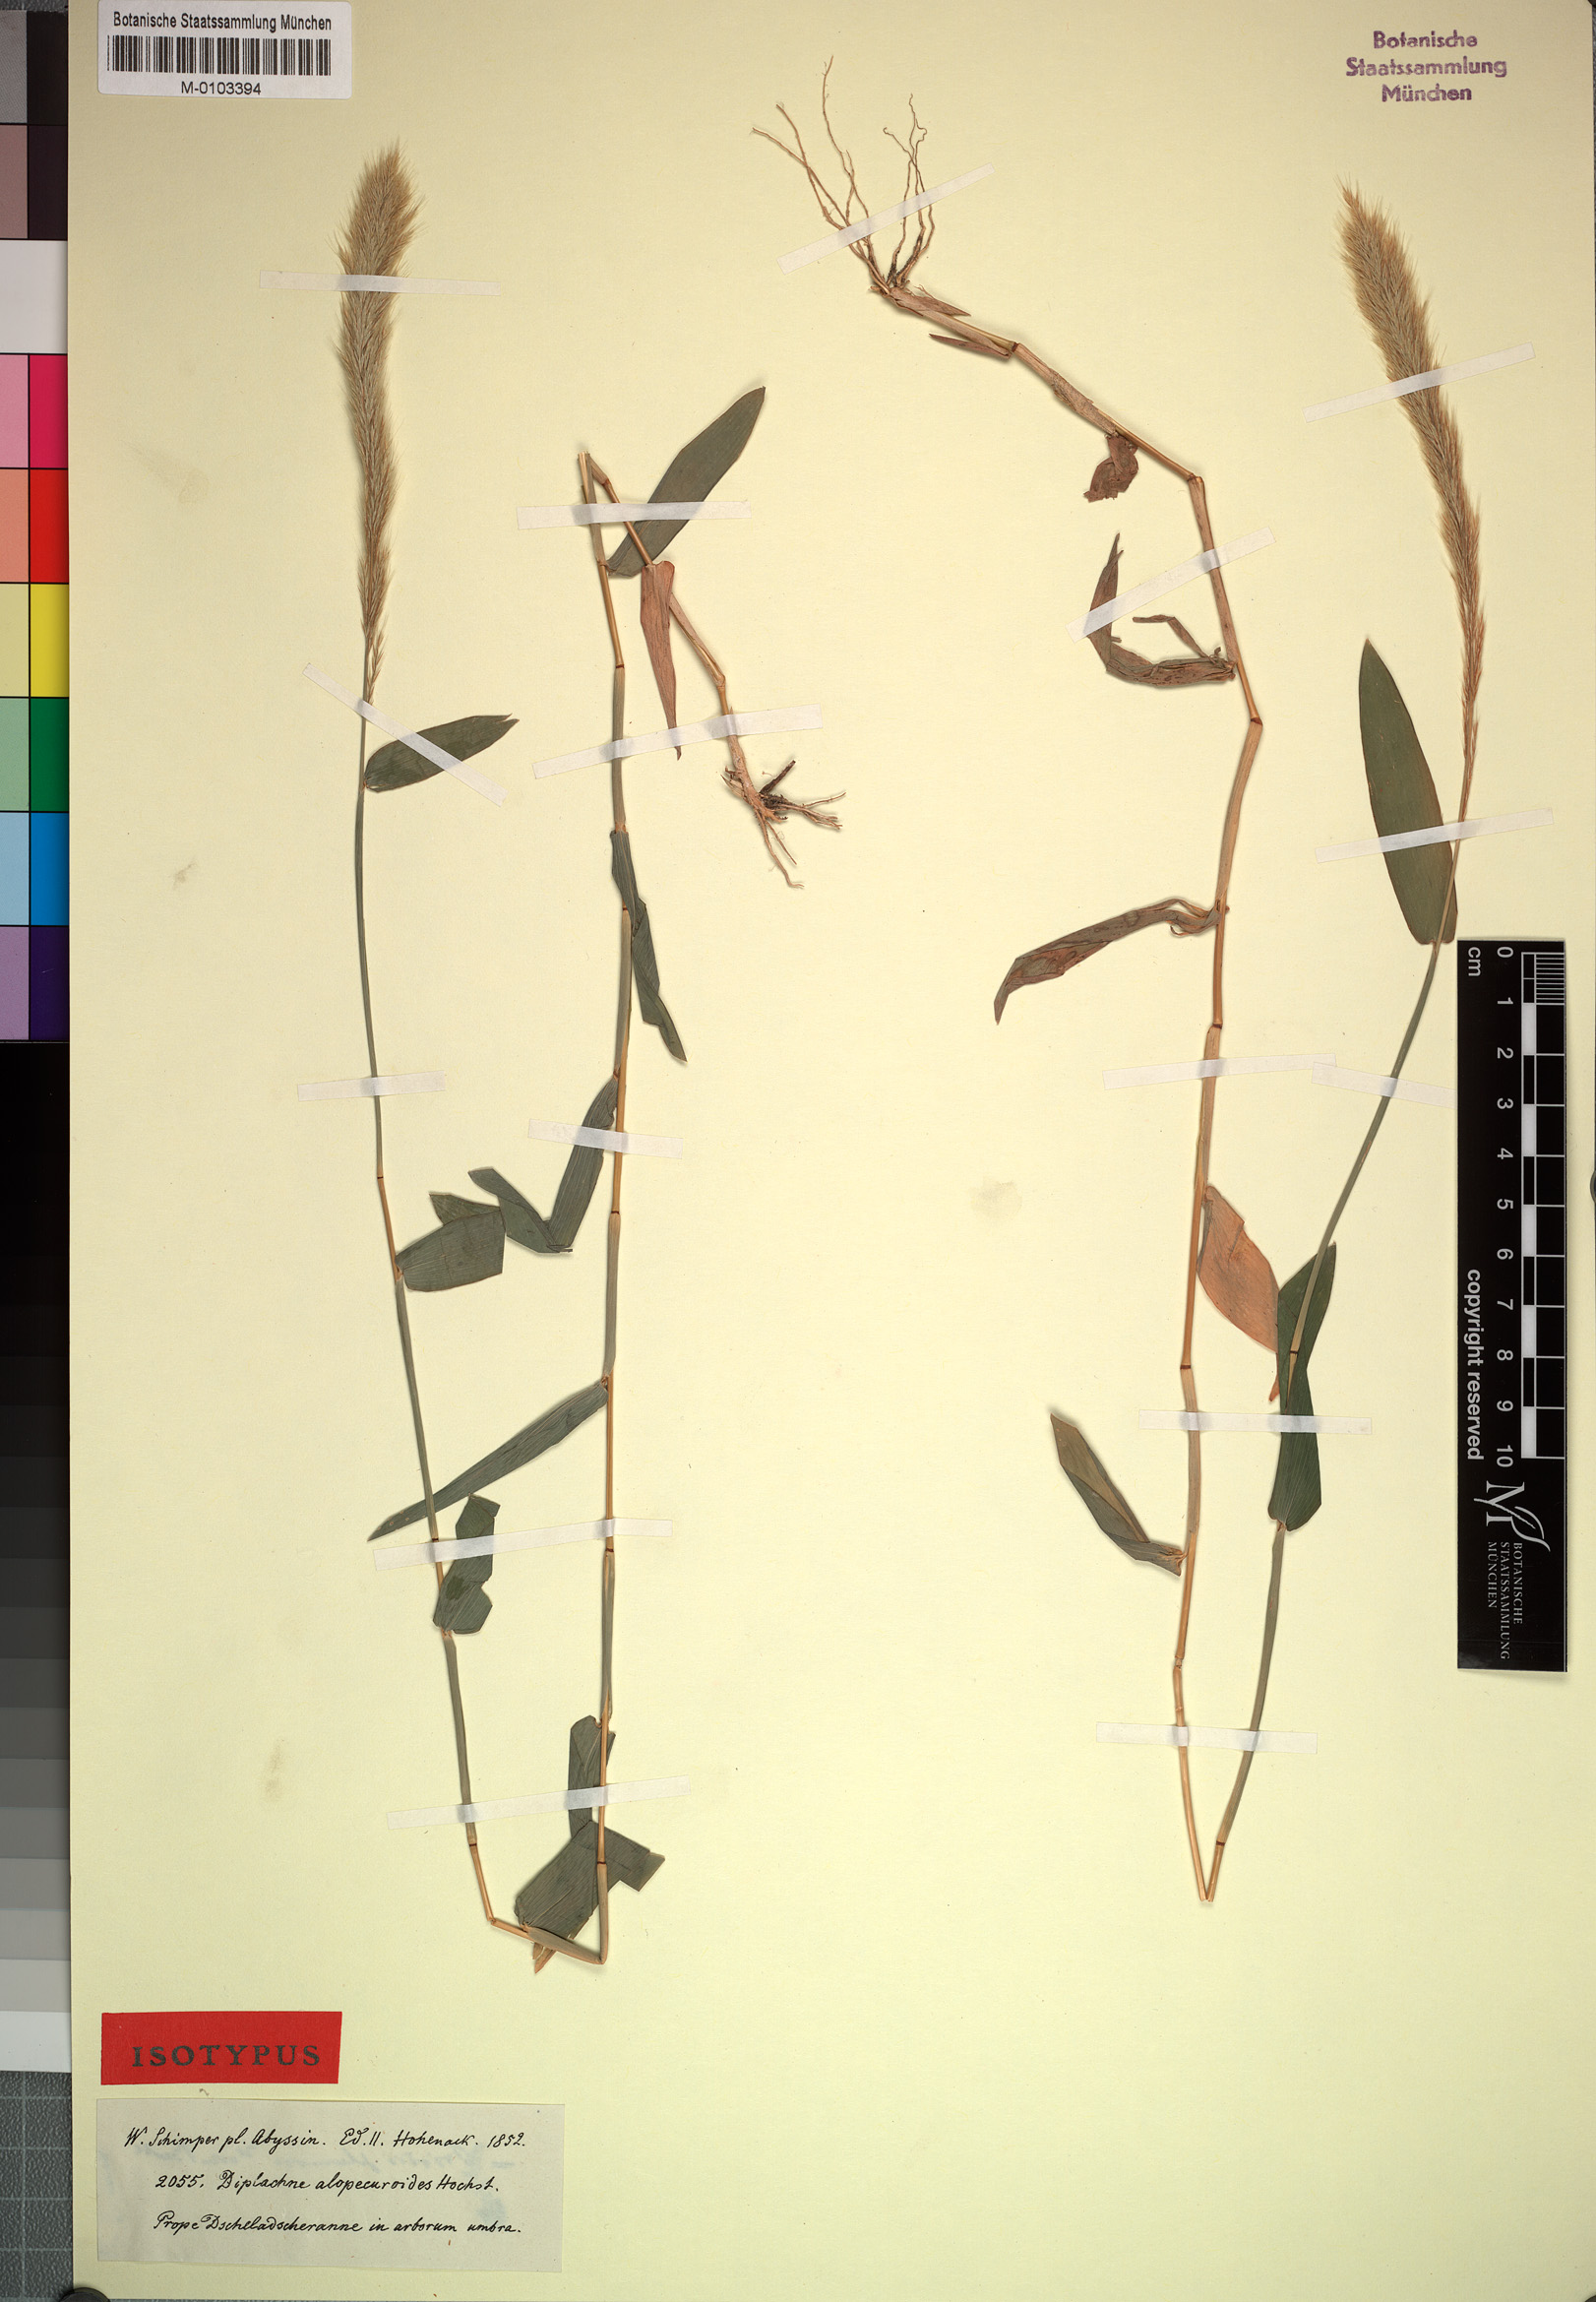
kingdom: Plantae
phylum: Tracheophyta
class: Liliopsida
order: Poales
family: Poaceae
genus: Leptocarydion
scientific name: Leptocarydion vulpiastrum
